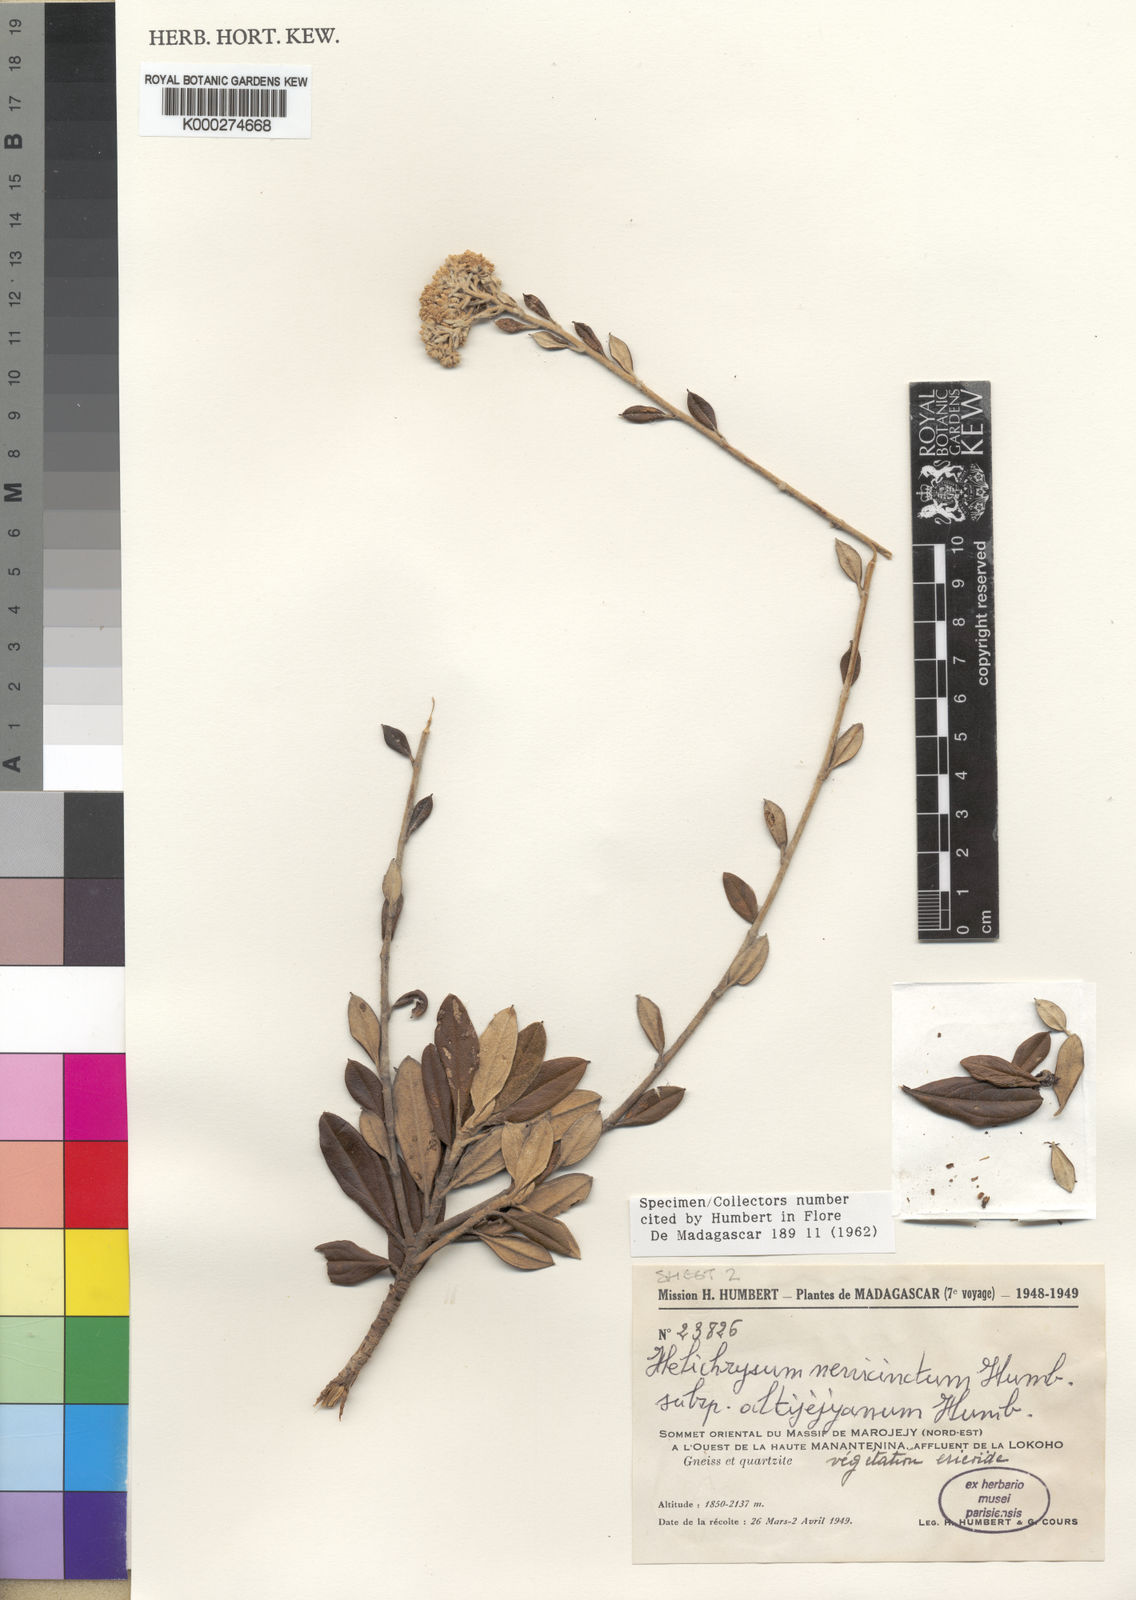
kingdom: Plantae
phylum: Tracheophyta
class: Magnoliopsida
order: Asterales
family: Asteraceae
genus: Helichrysum
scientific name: Helichrysum nervicinctum
